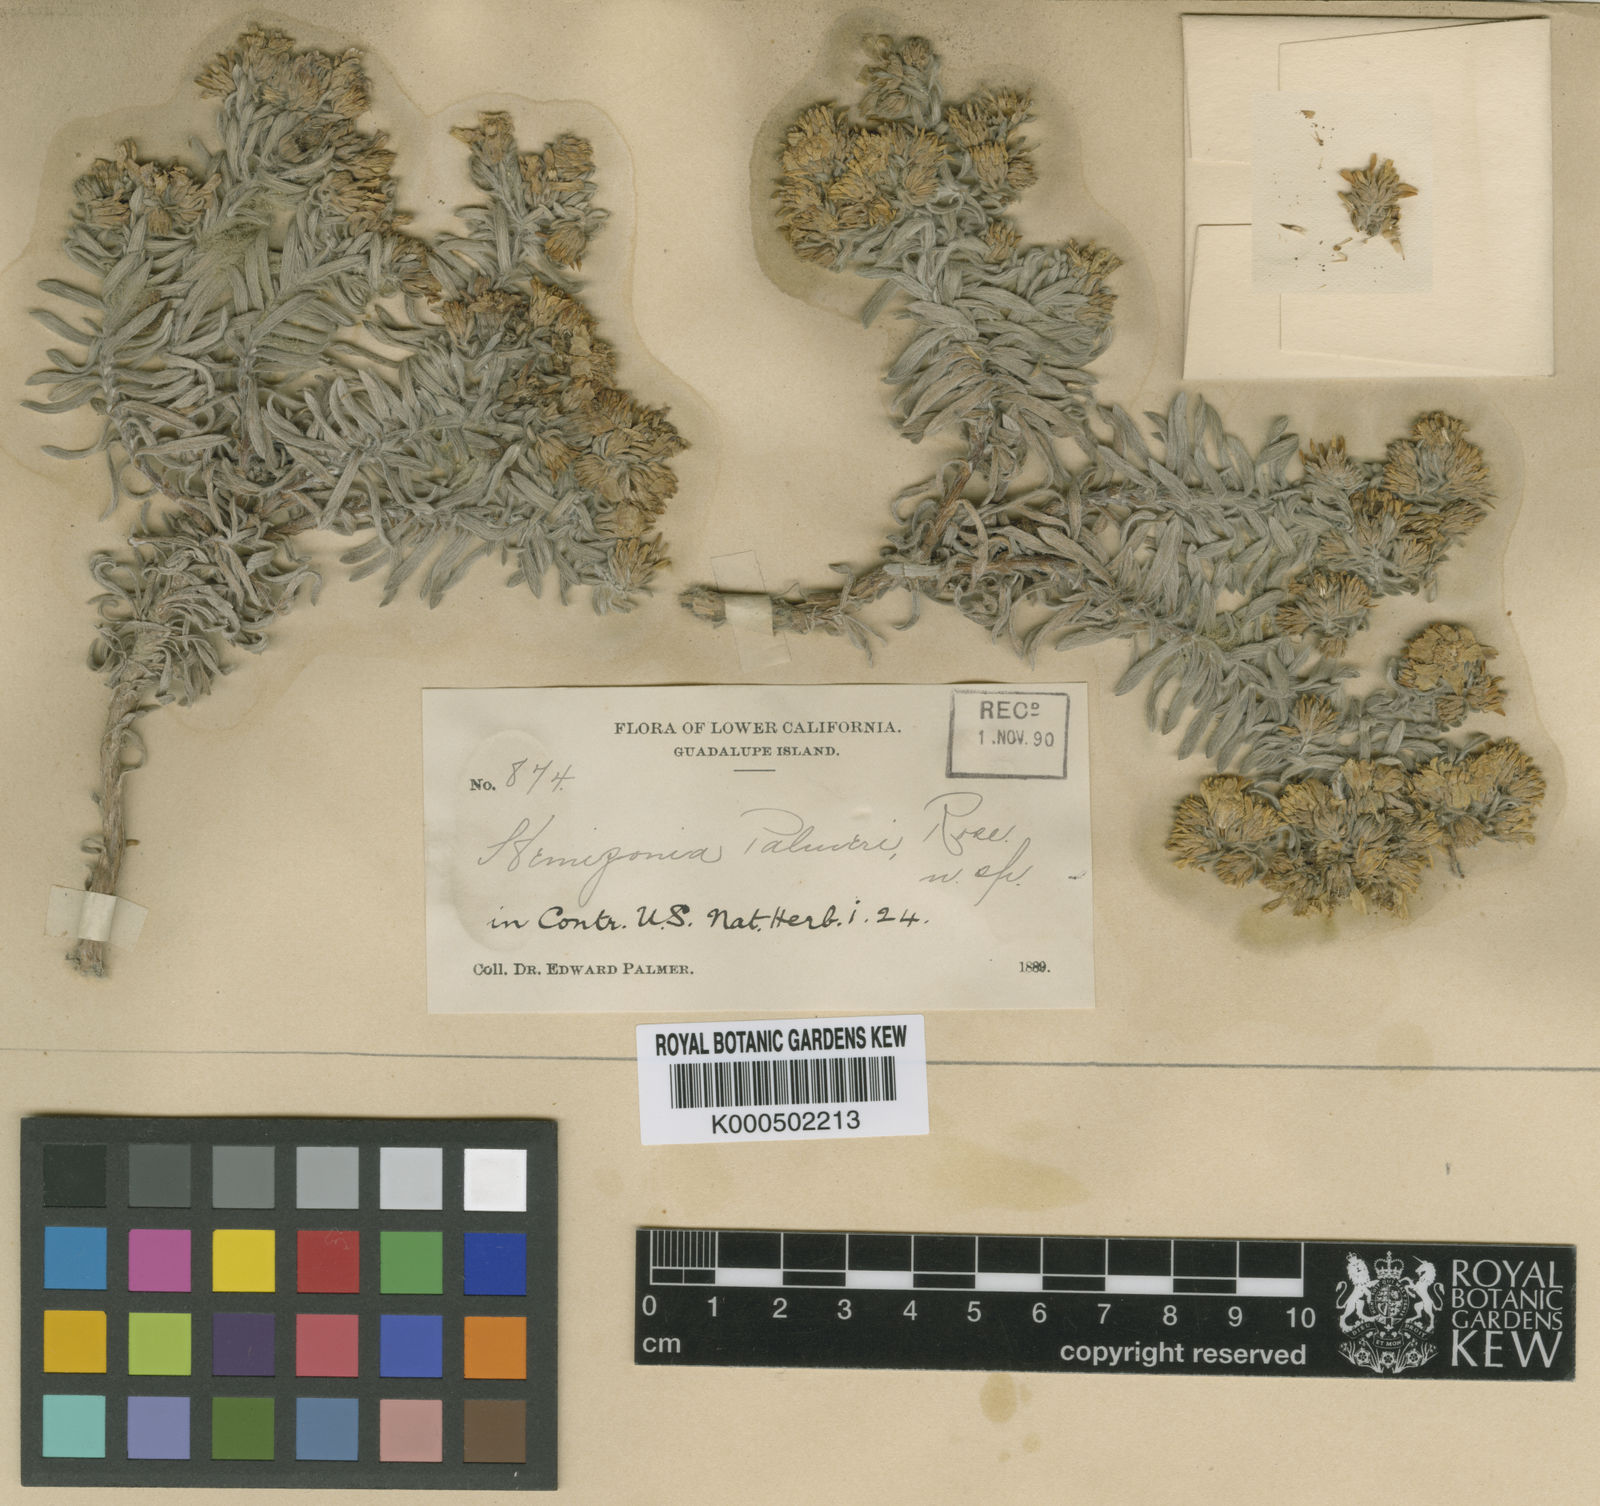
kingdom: Plantae
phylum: Tracheophyta
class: Magnoliopsida
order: Asterales
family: Asteraceae
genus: Deinandra
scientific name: Deinandra palmeri
